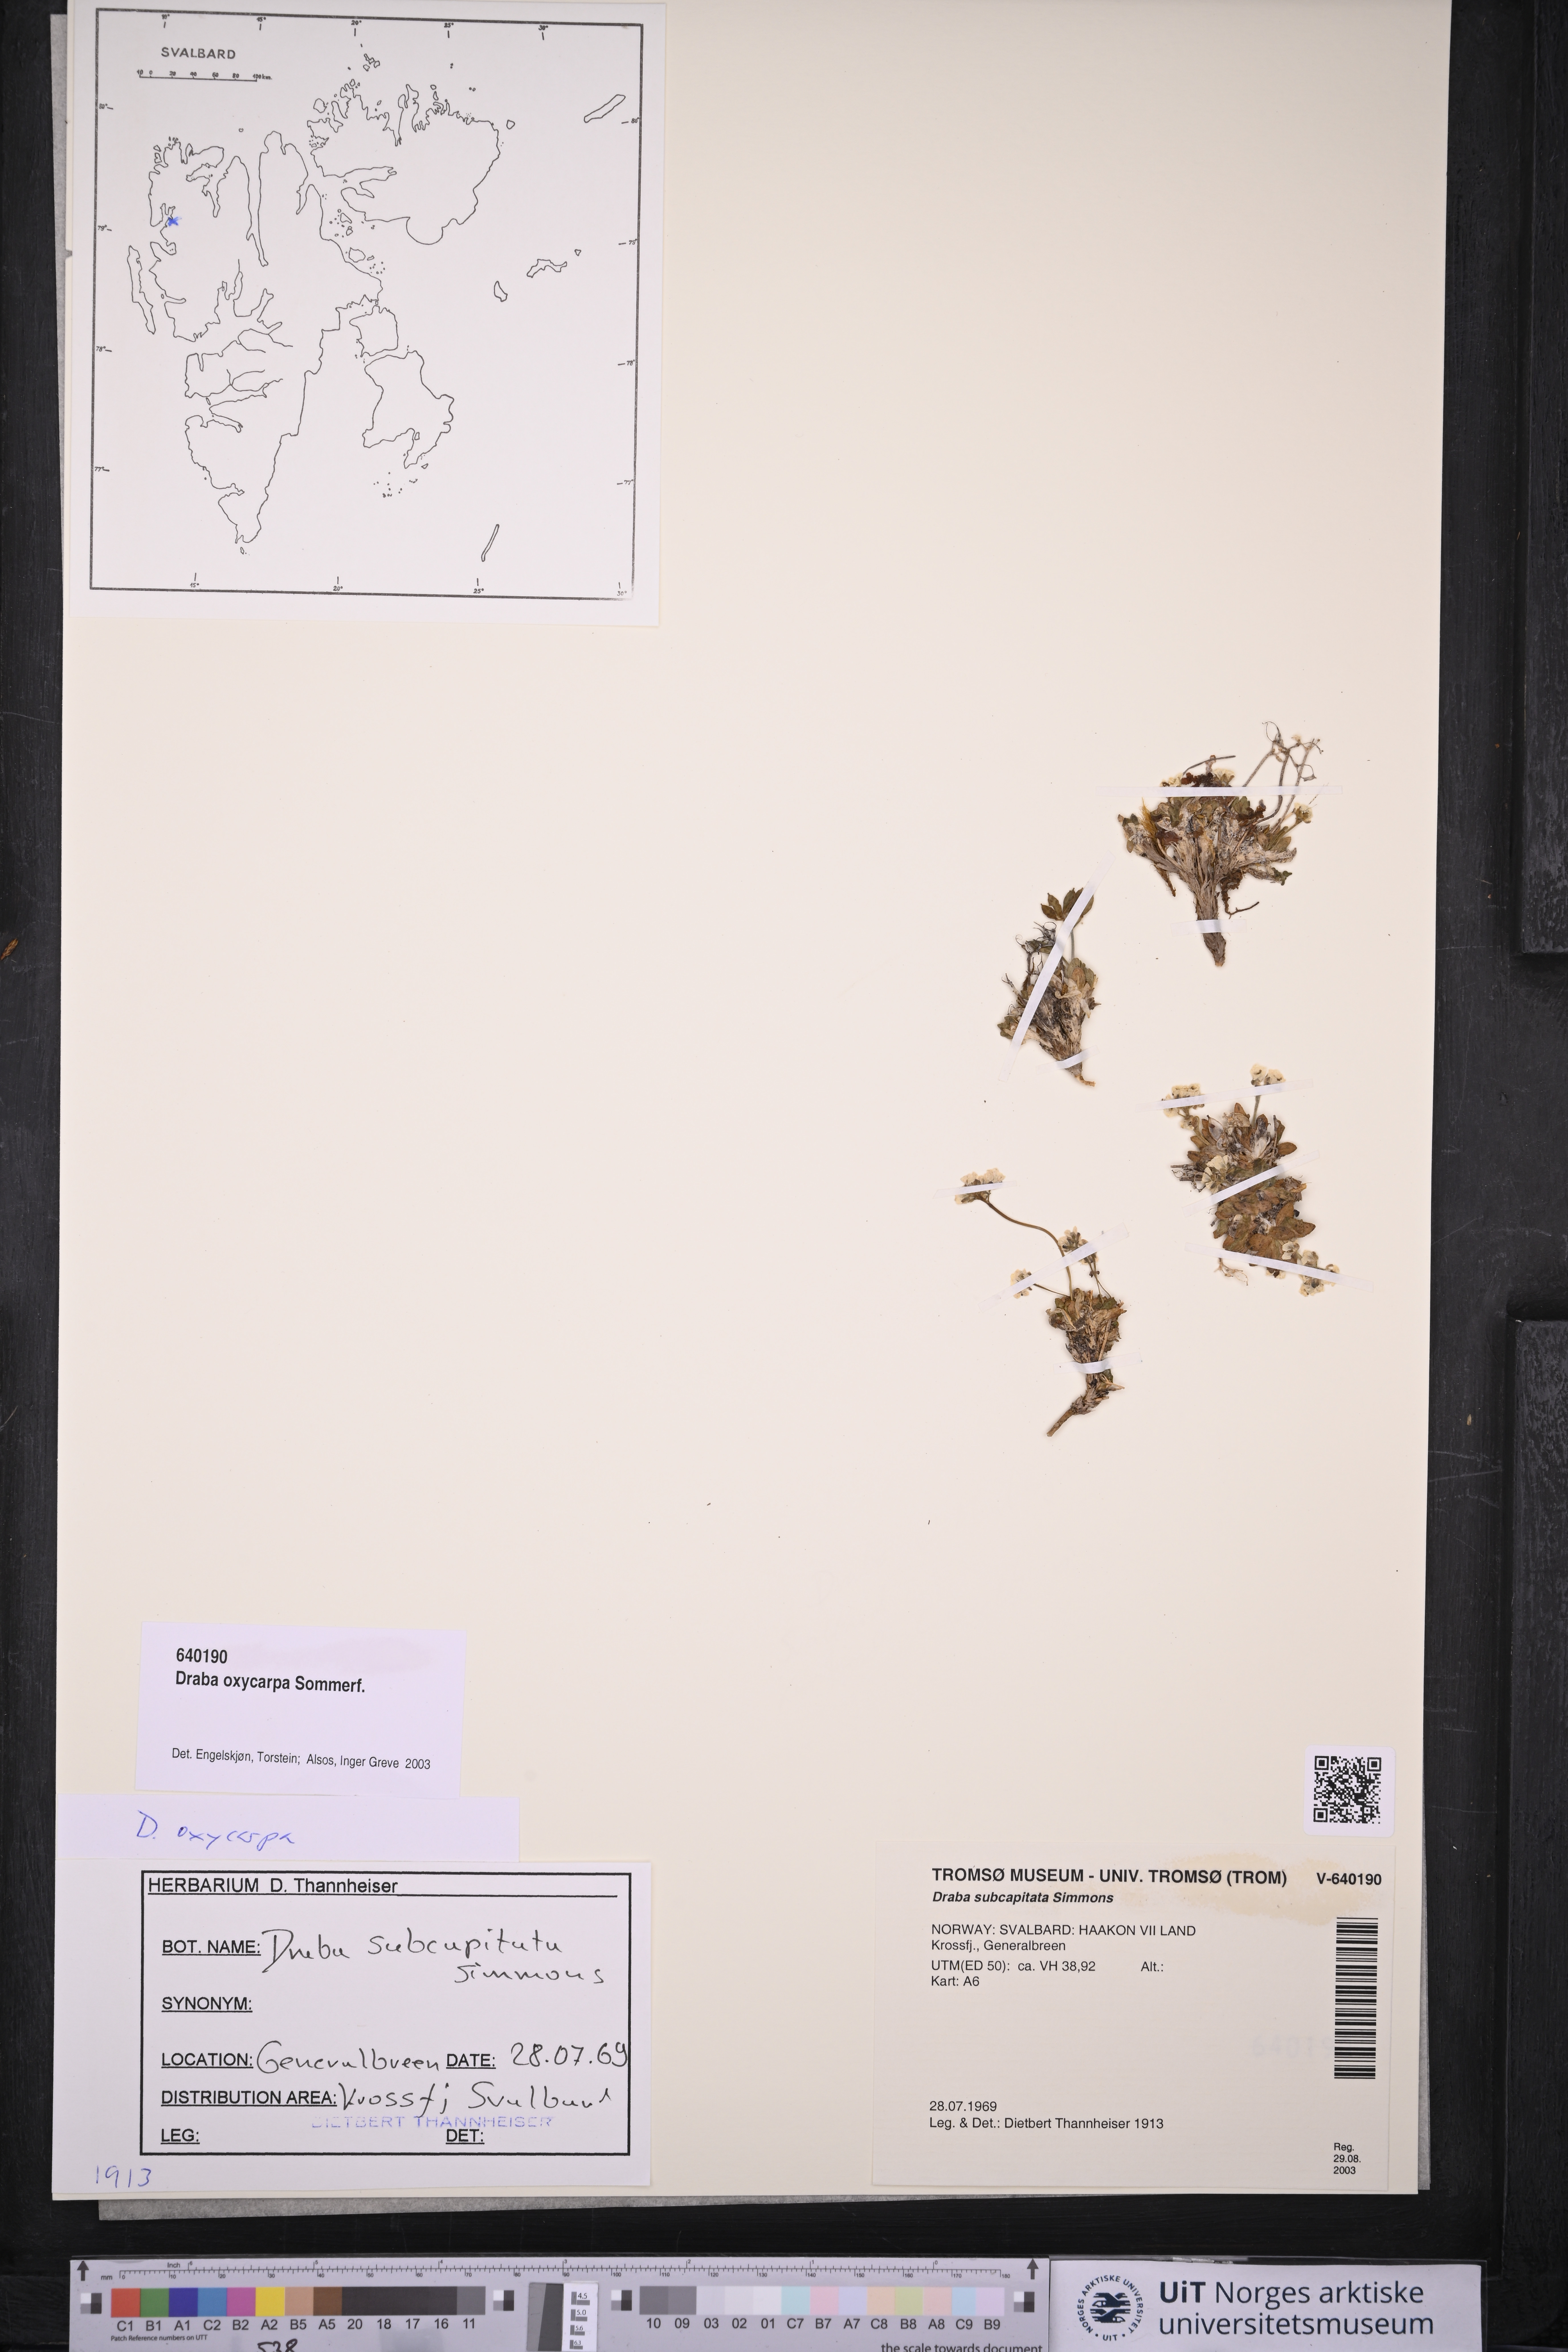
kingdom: Plantae
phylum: Tracheophyta
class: Magnoliopsida
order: Brassicales
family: Brassicaceae
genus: Draba
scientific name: Draba oxycarpa
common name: Sharp-fruited whitlow-grass
